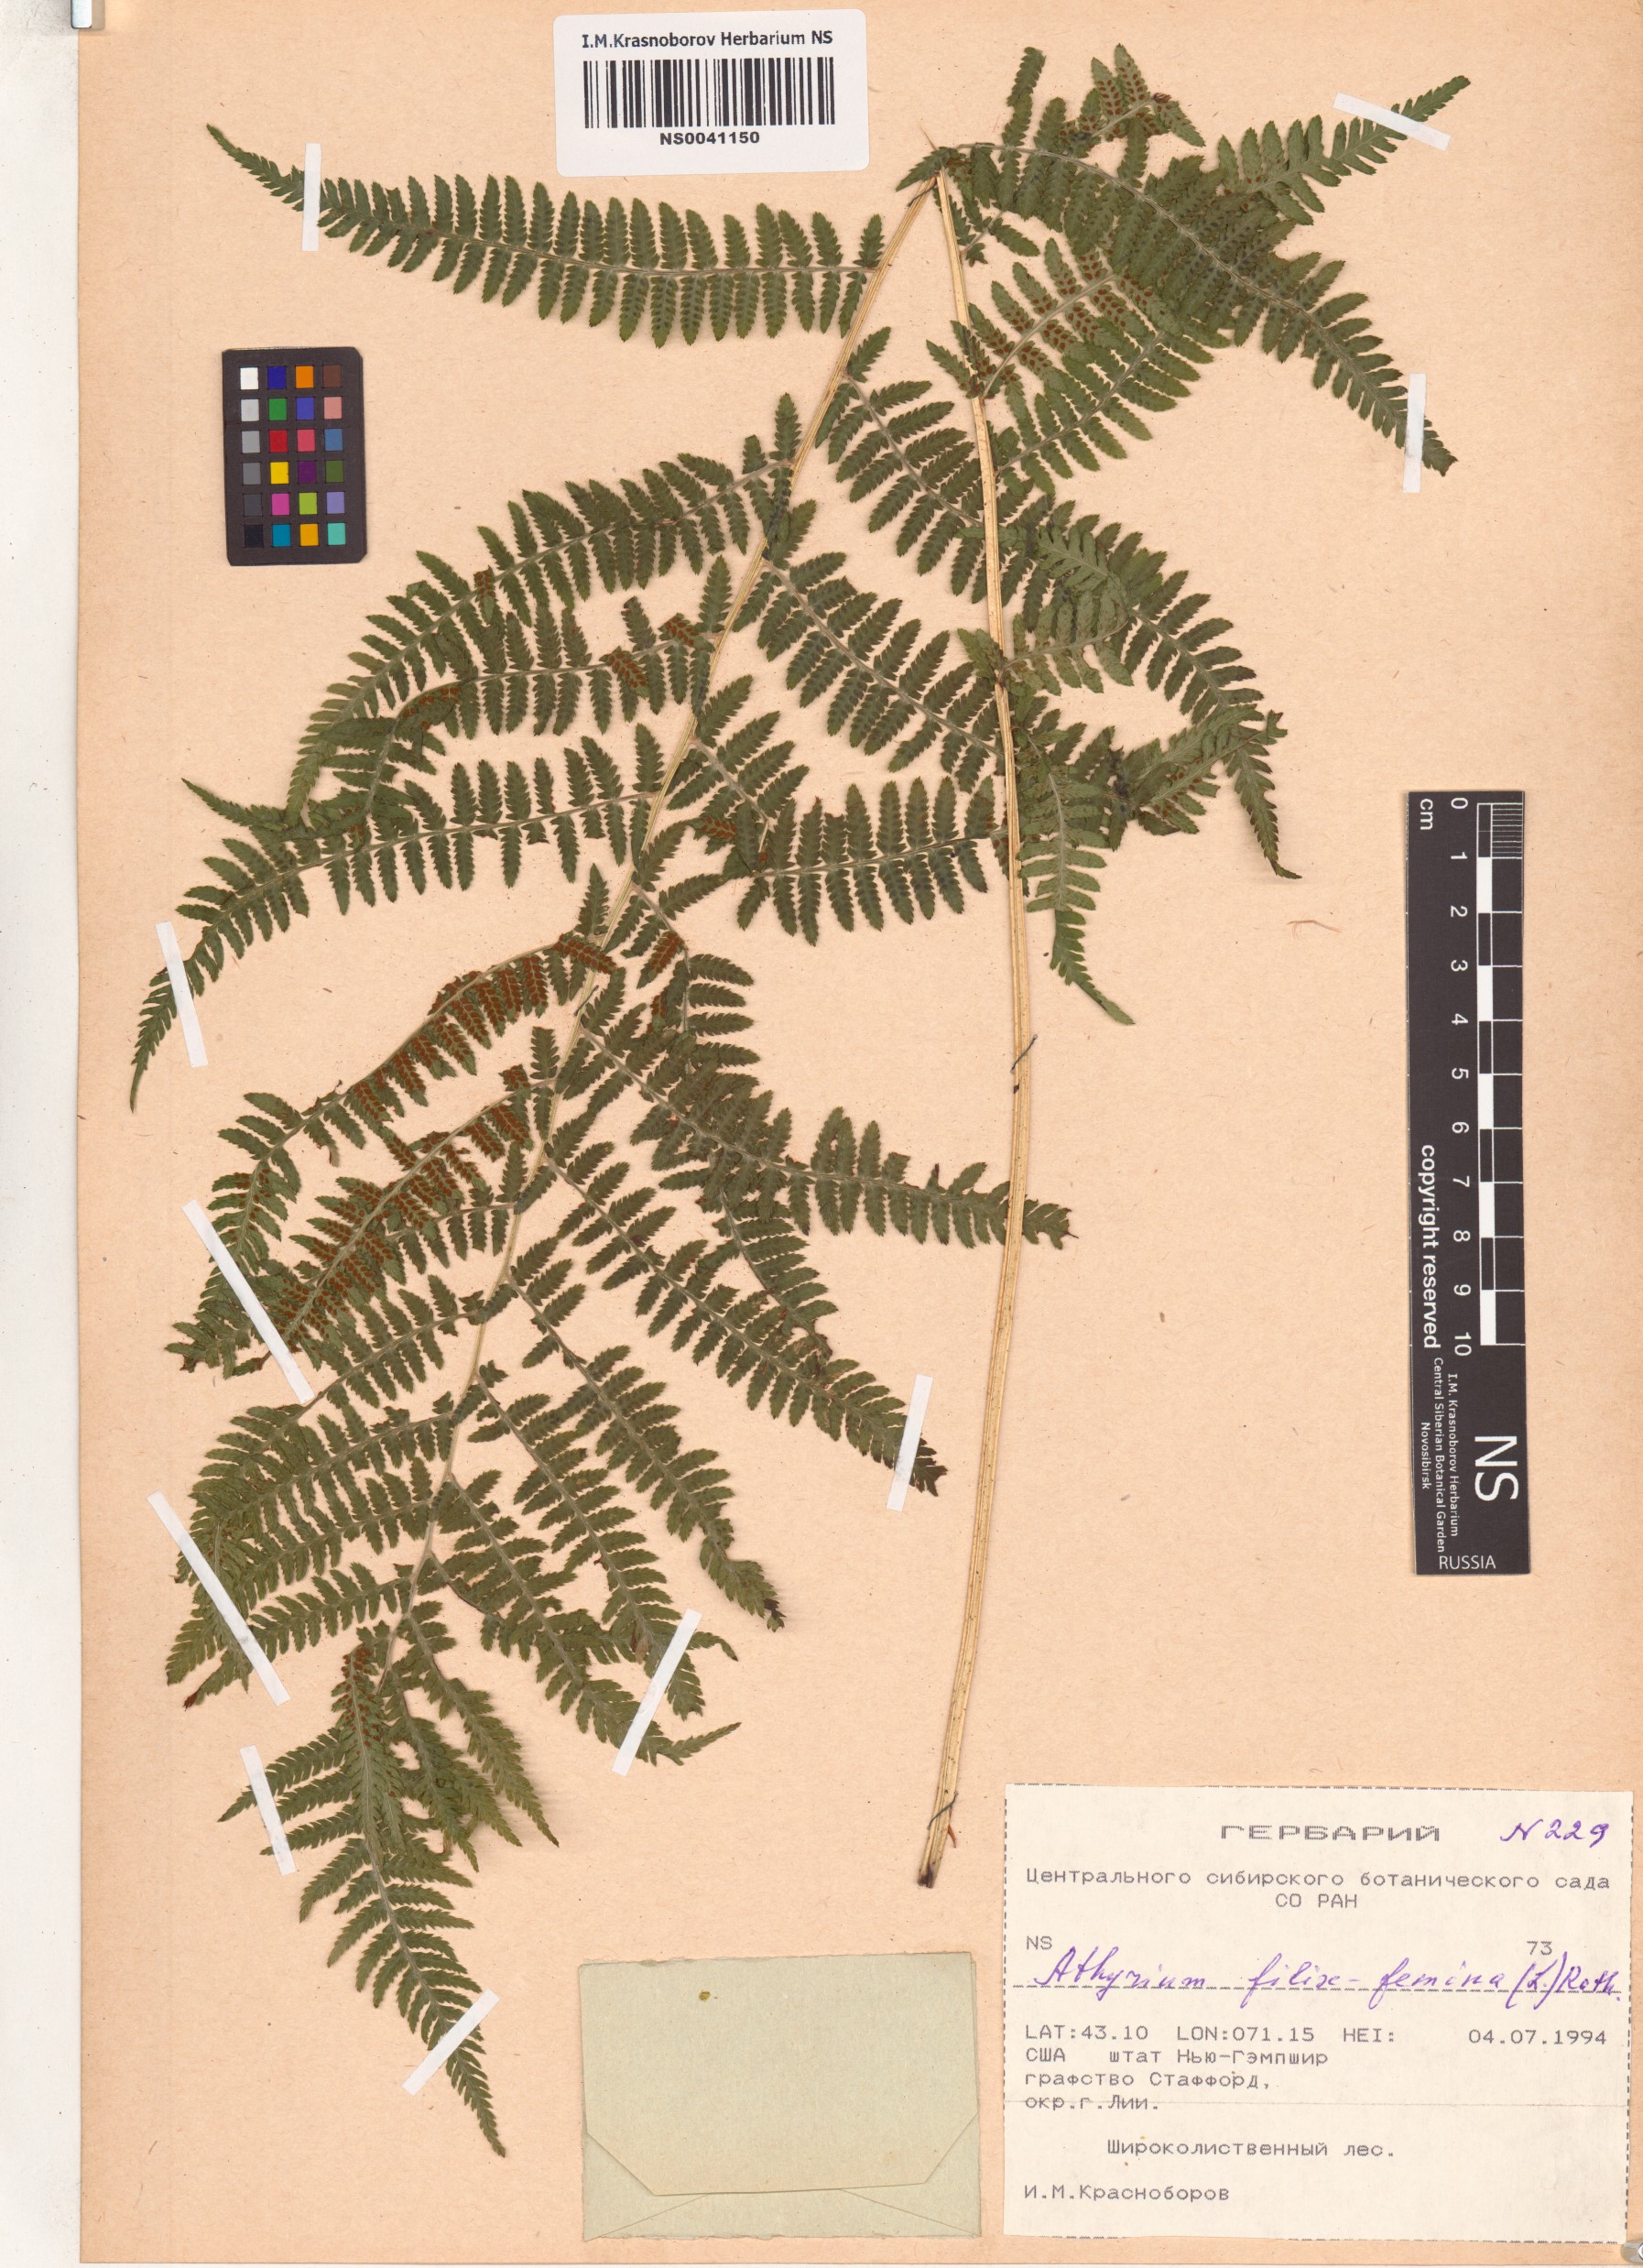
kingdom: Plantae
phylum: Tracheophyta
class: Polypodiopsida
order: Polypodiales
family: Athyriaceae
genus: Athyrium
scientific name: Athyrium filix-femina
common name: Lady fern
